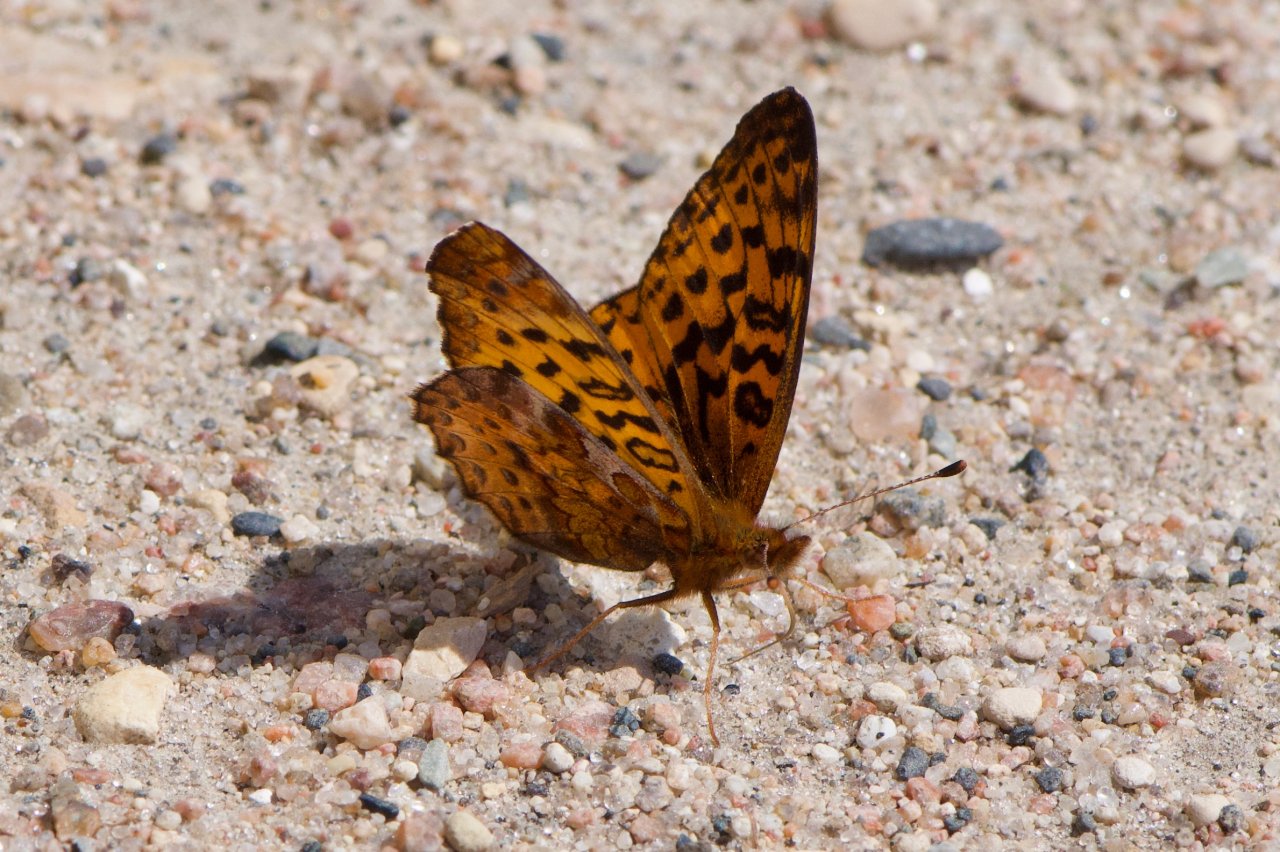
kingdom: Animalia
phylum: Arthropoda
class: Insecta
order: Lepidoptera
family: Nymphalidae
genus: Clossiana
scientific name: Clossiana toddi
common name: Meadow Fritillary
